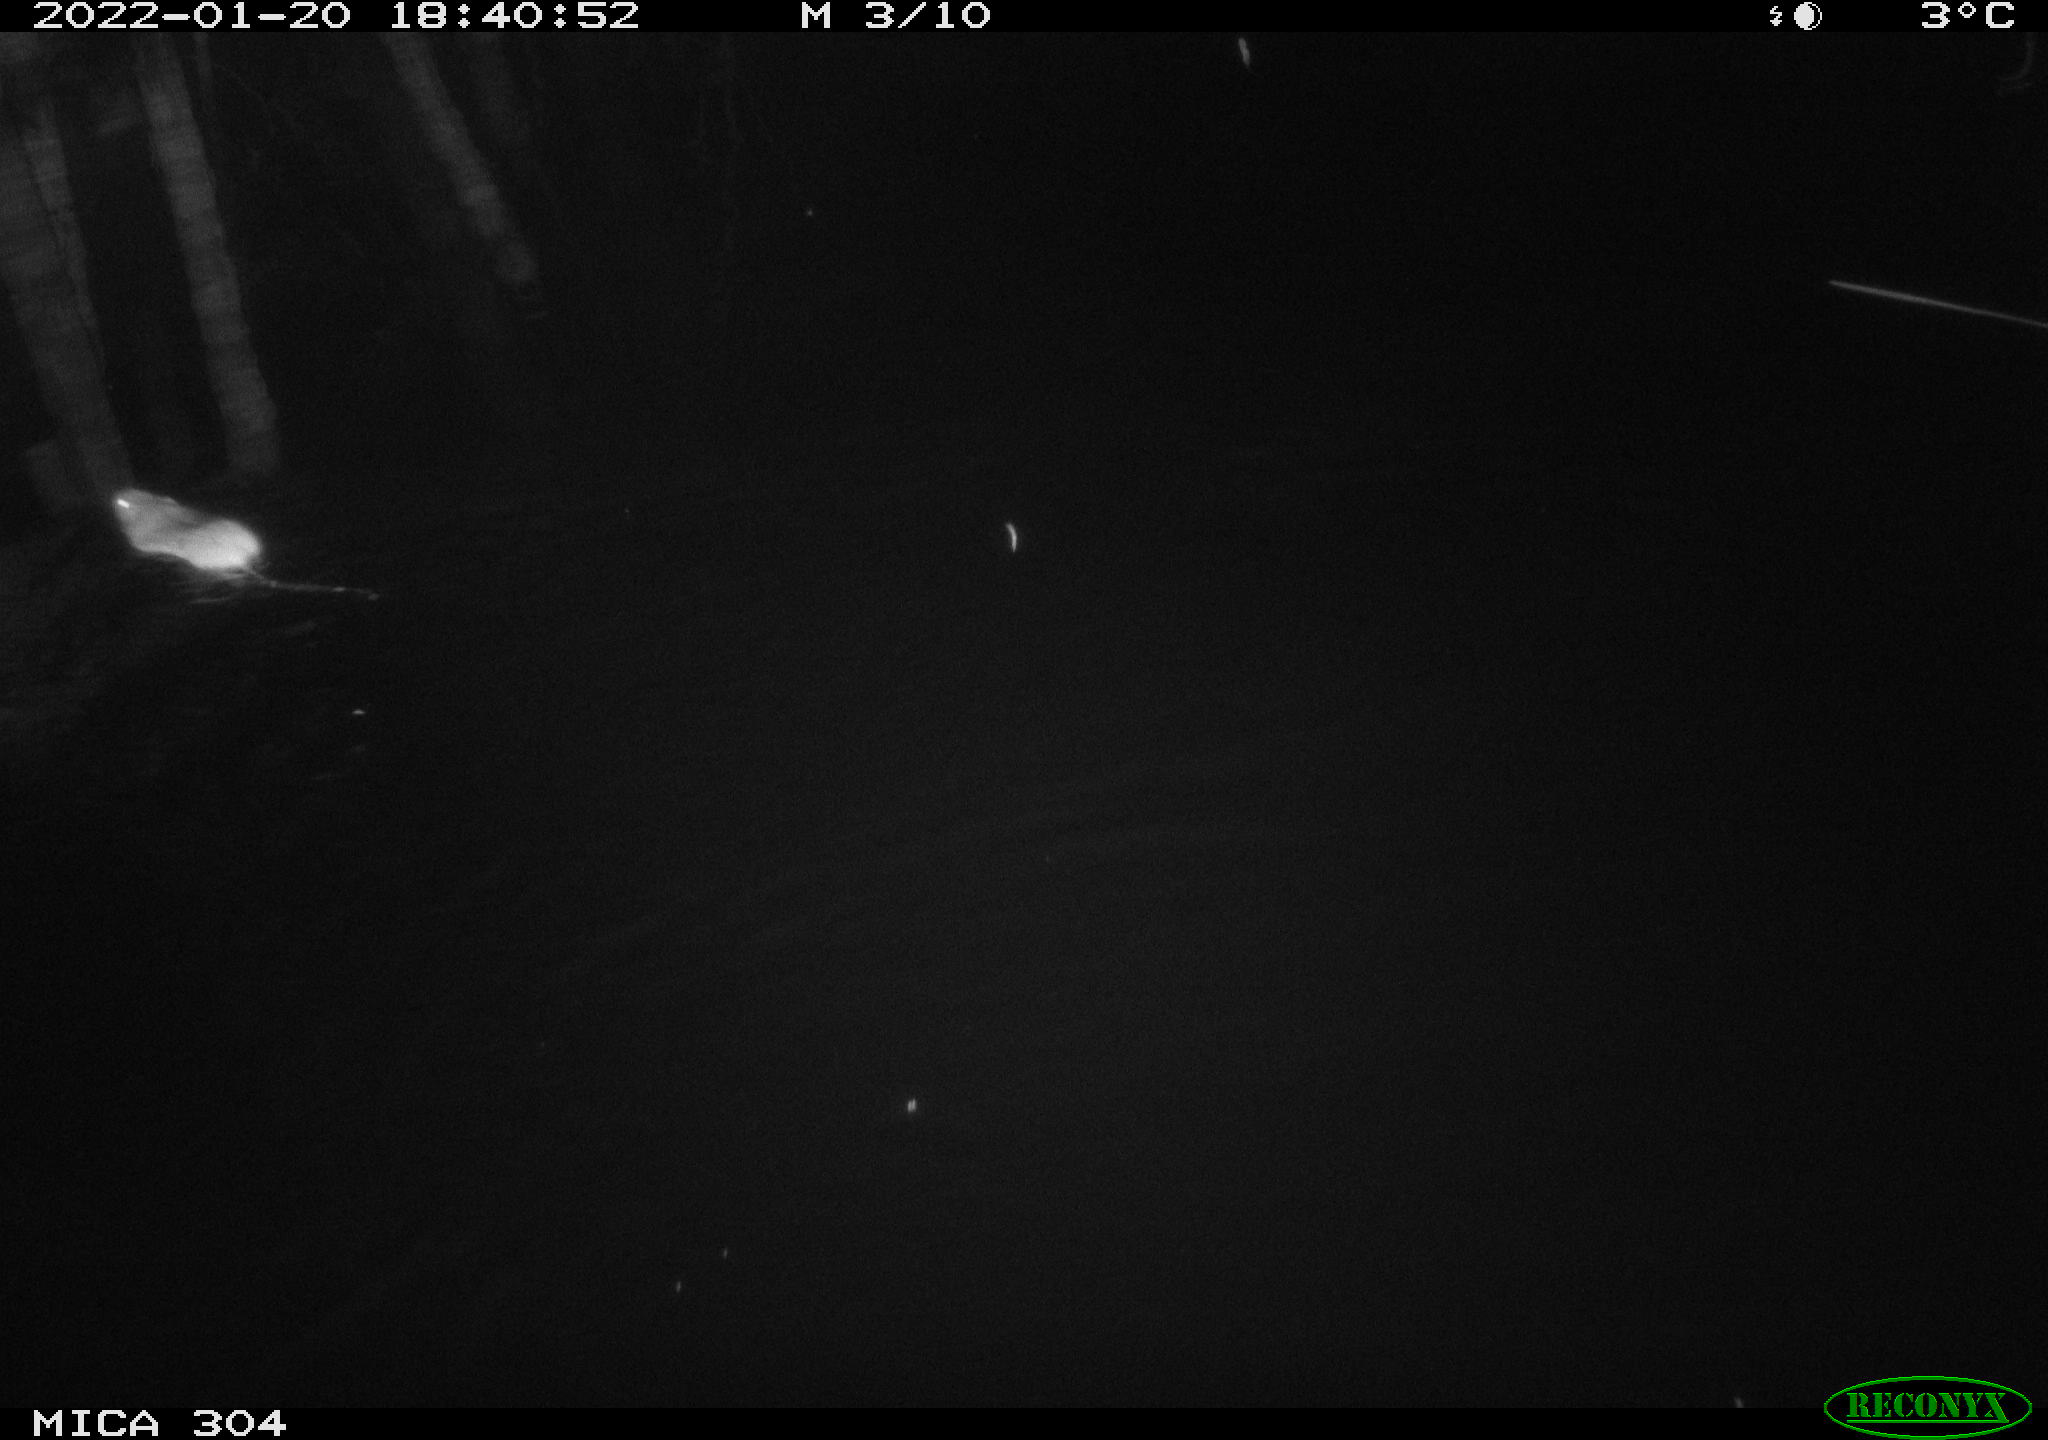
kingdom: Animalia
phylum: Chordata
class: Mammalia
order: Rodentia
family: Muridae
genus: Rattus
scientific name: Rattus norvegicus
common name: Brown rat
